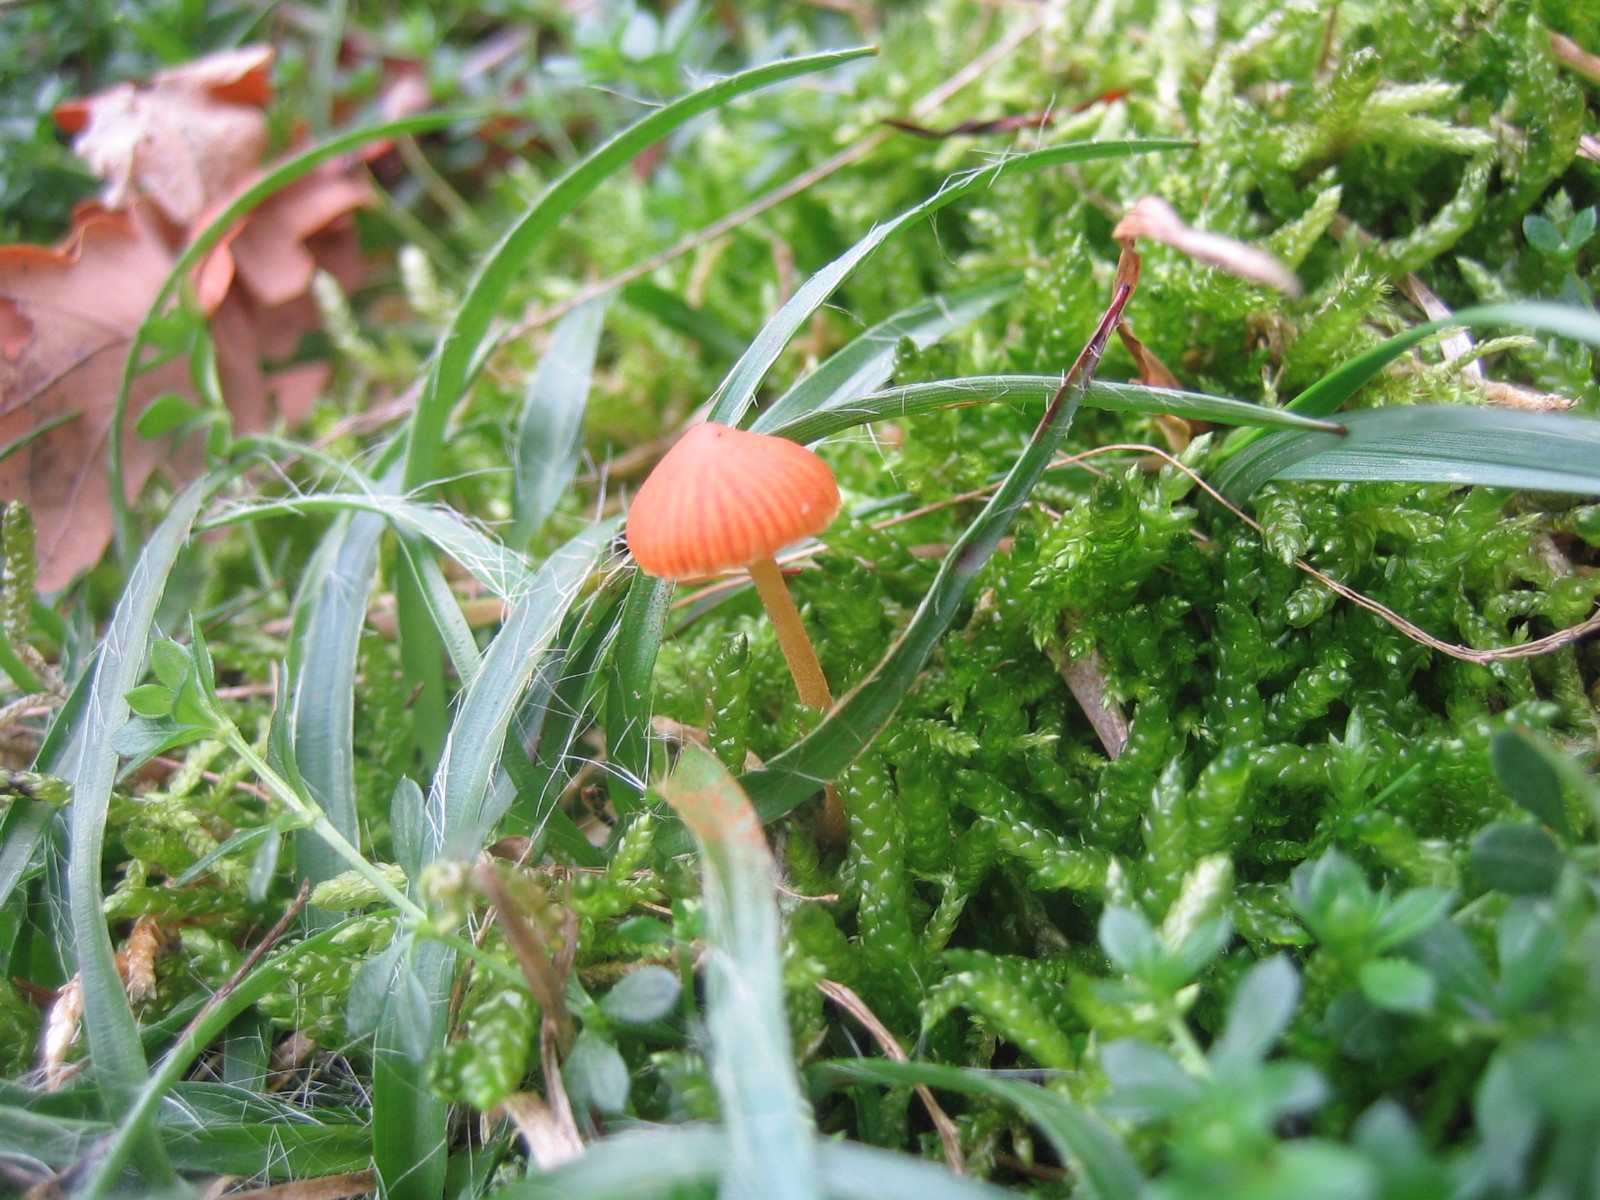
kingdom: Fungi
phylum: Basidiomycota
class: Agaricomycetes
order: Agaricales
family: Hymenogastraceae
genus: Galerina
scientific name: Galerina
